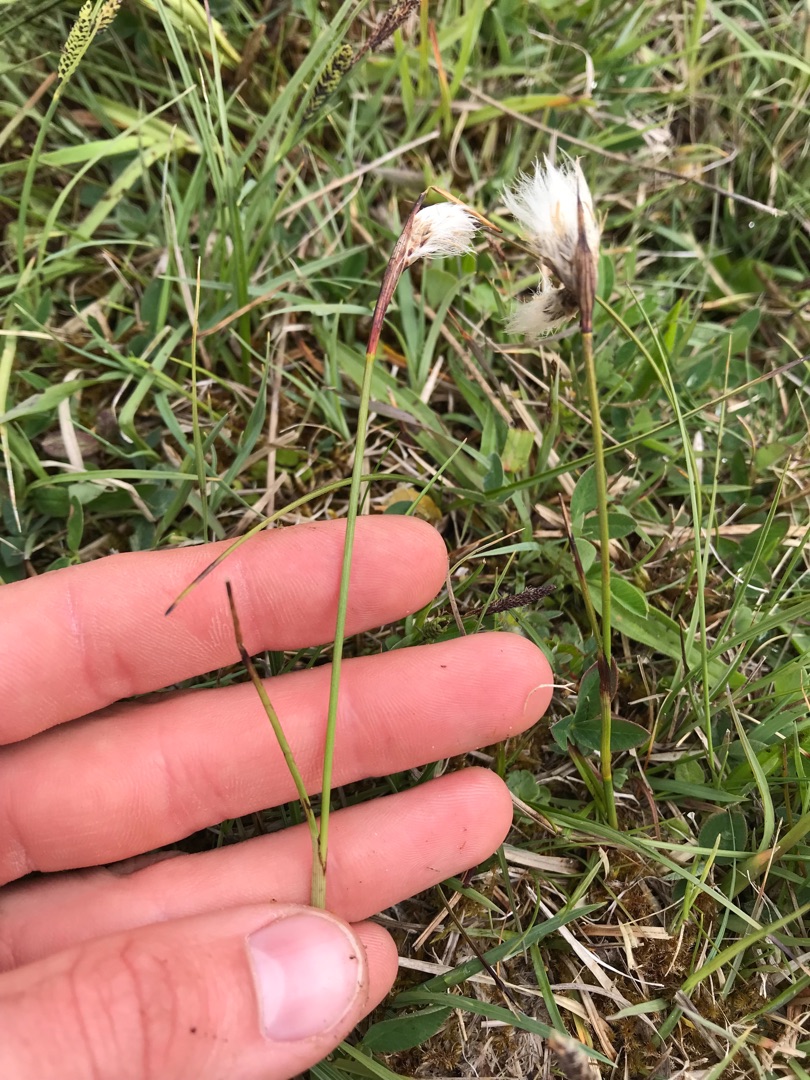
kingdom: Plantae
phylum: Tracheophyta
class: Liliopsida
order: Poales
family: Cyperaceae
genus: Eriophorum
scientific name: Eriophorum angustifolium
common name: Smalbladet kæruld
